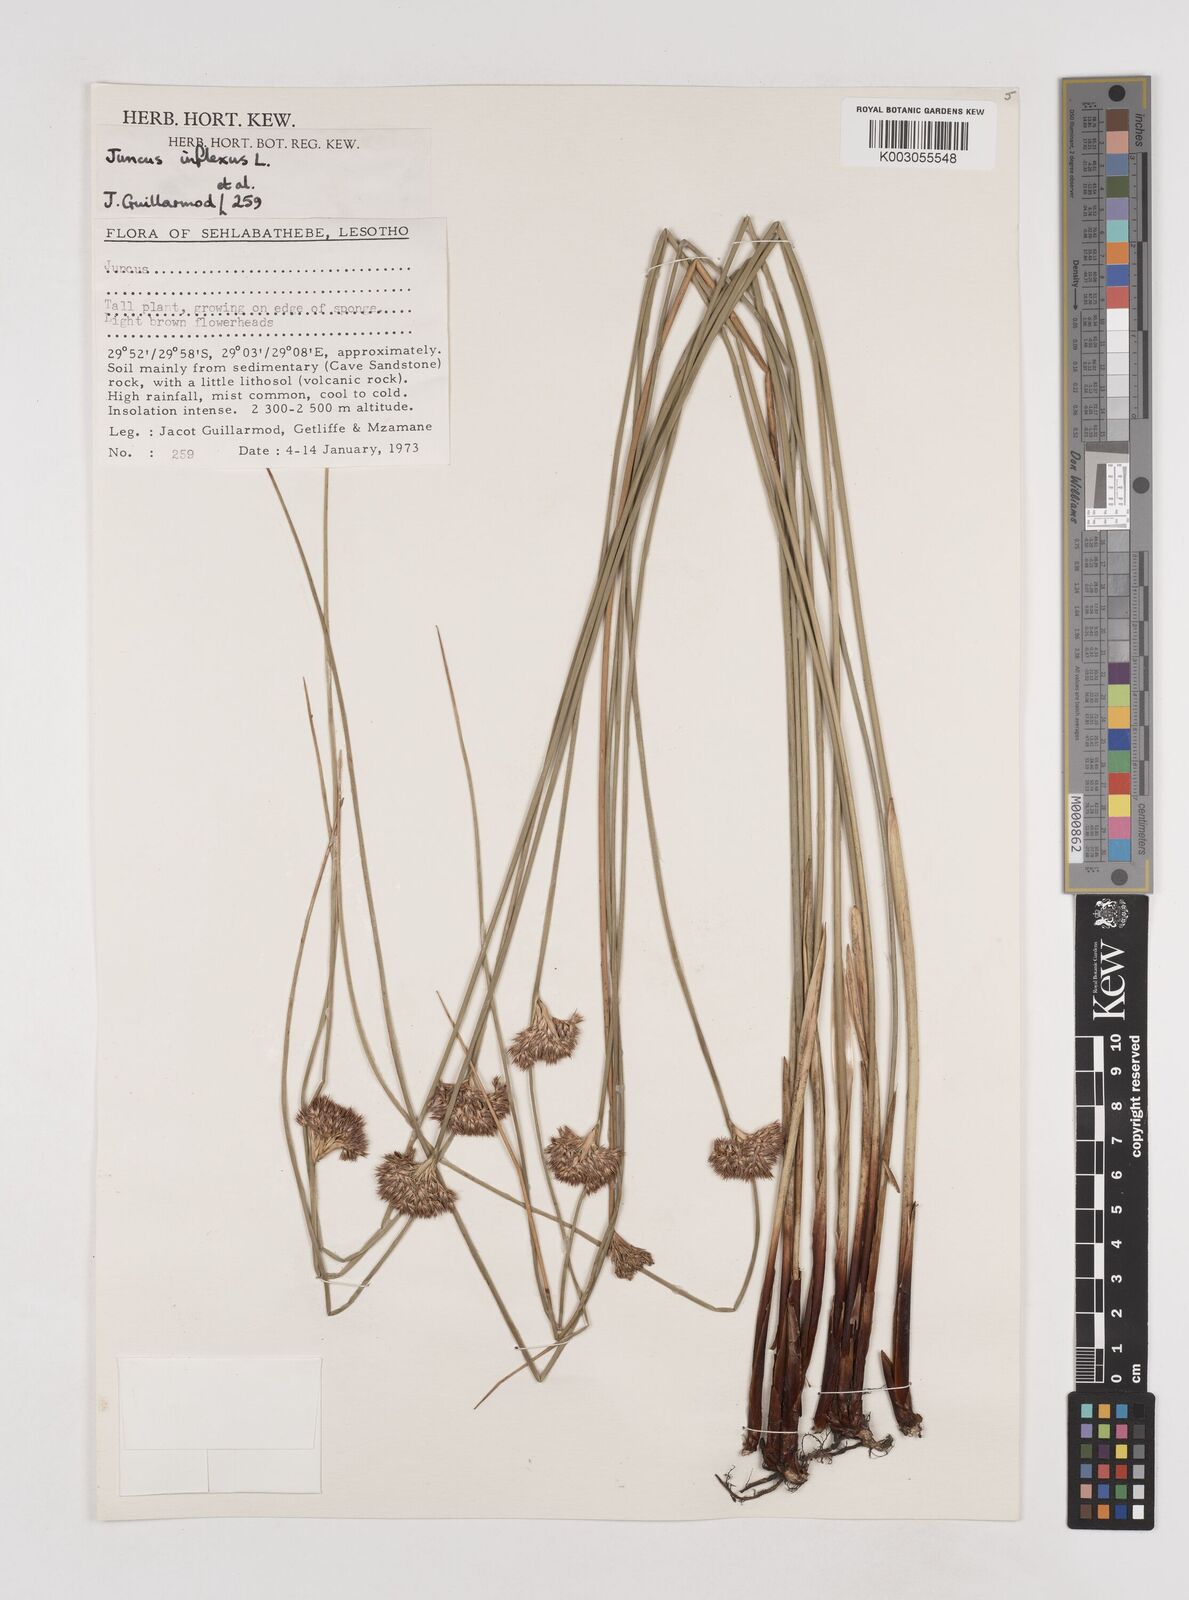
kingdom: Plantae
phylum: Tracheophyta
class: Liliopsida
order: Poales
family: Juncaceae
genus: Juncus
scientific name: Juncus inflexus
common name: Hard rush
